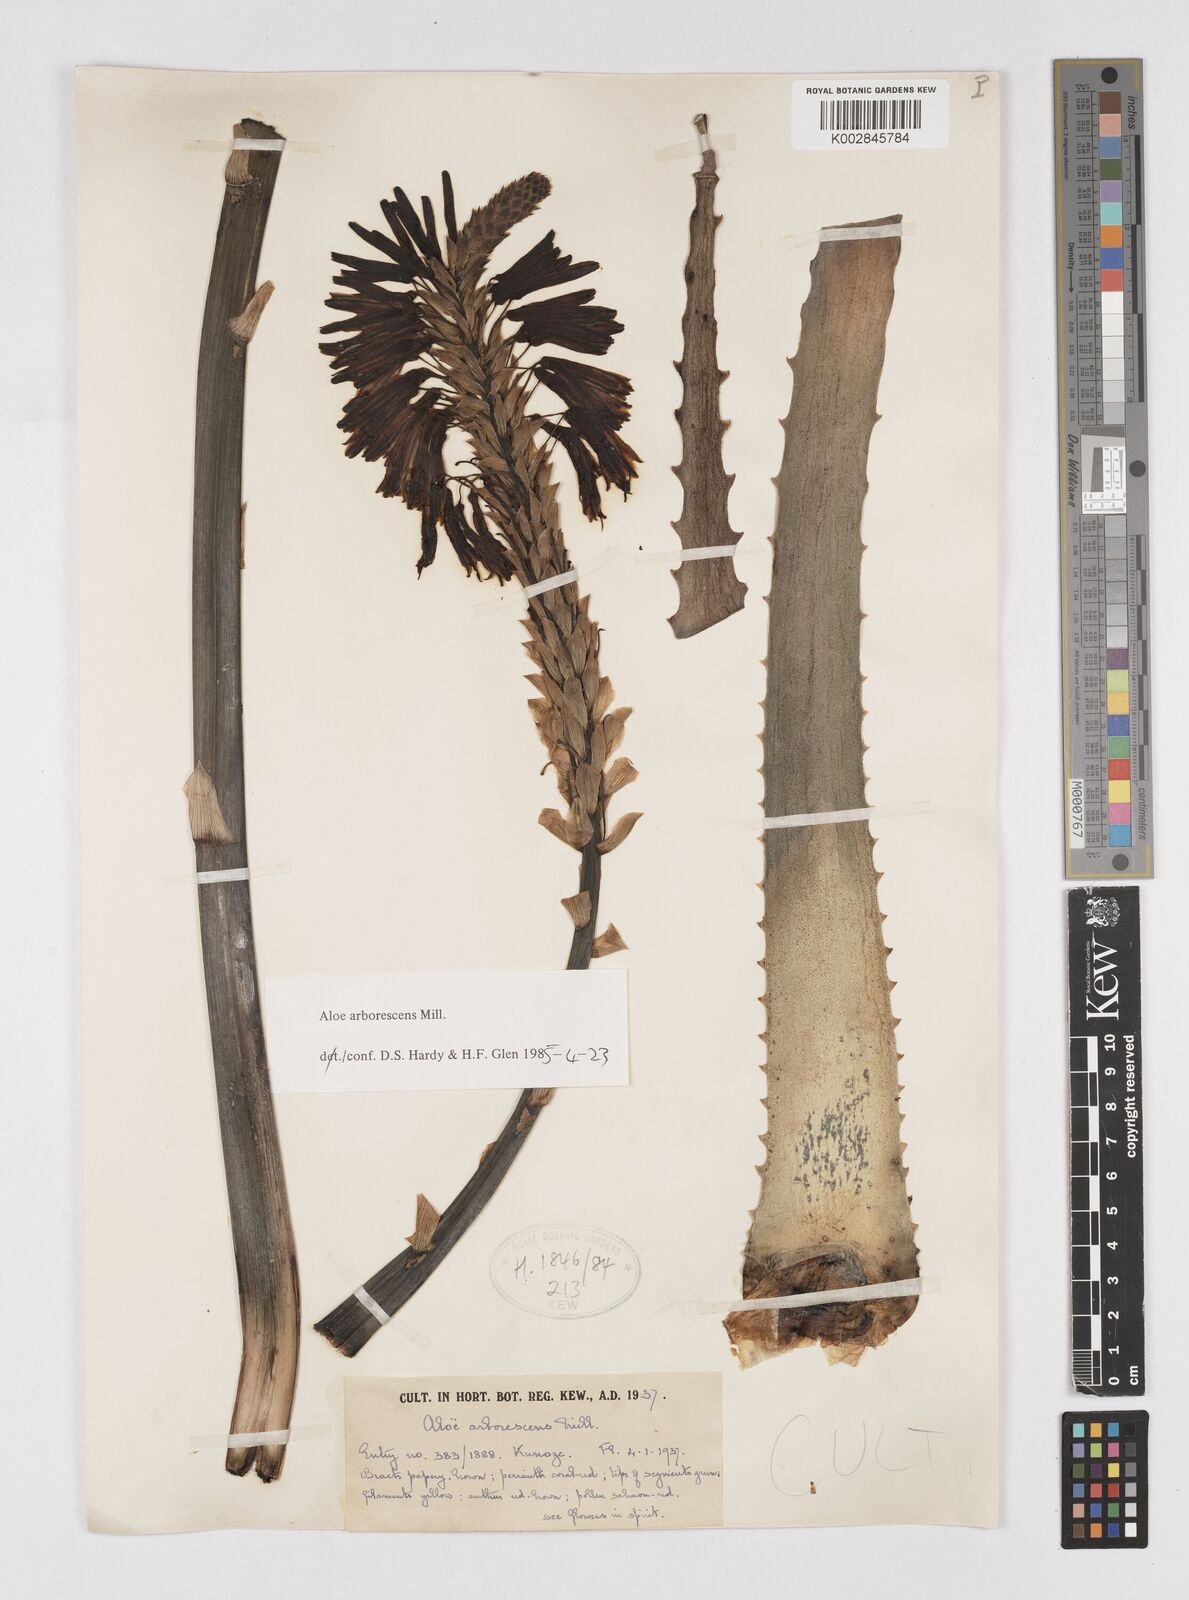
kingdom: Plantae
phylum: Tracheophyta
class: Liliopsida
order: Asparagales
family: Asphodelaceae
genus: Aloe
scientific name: Aloe arborescens
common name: Candelabra aloe
